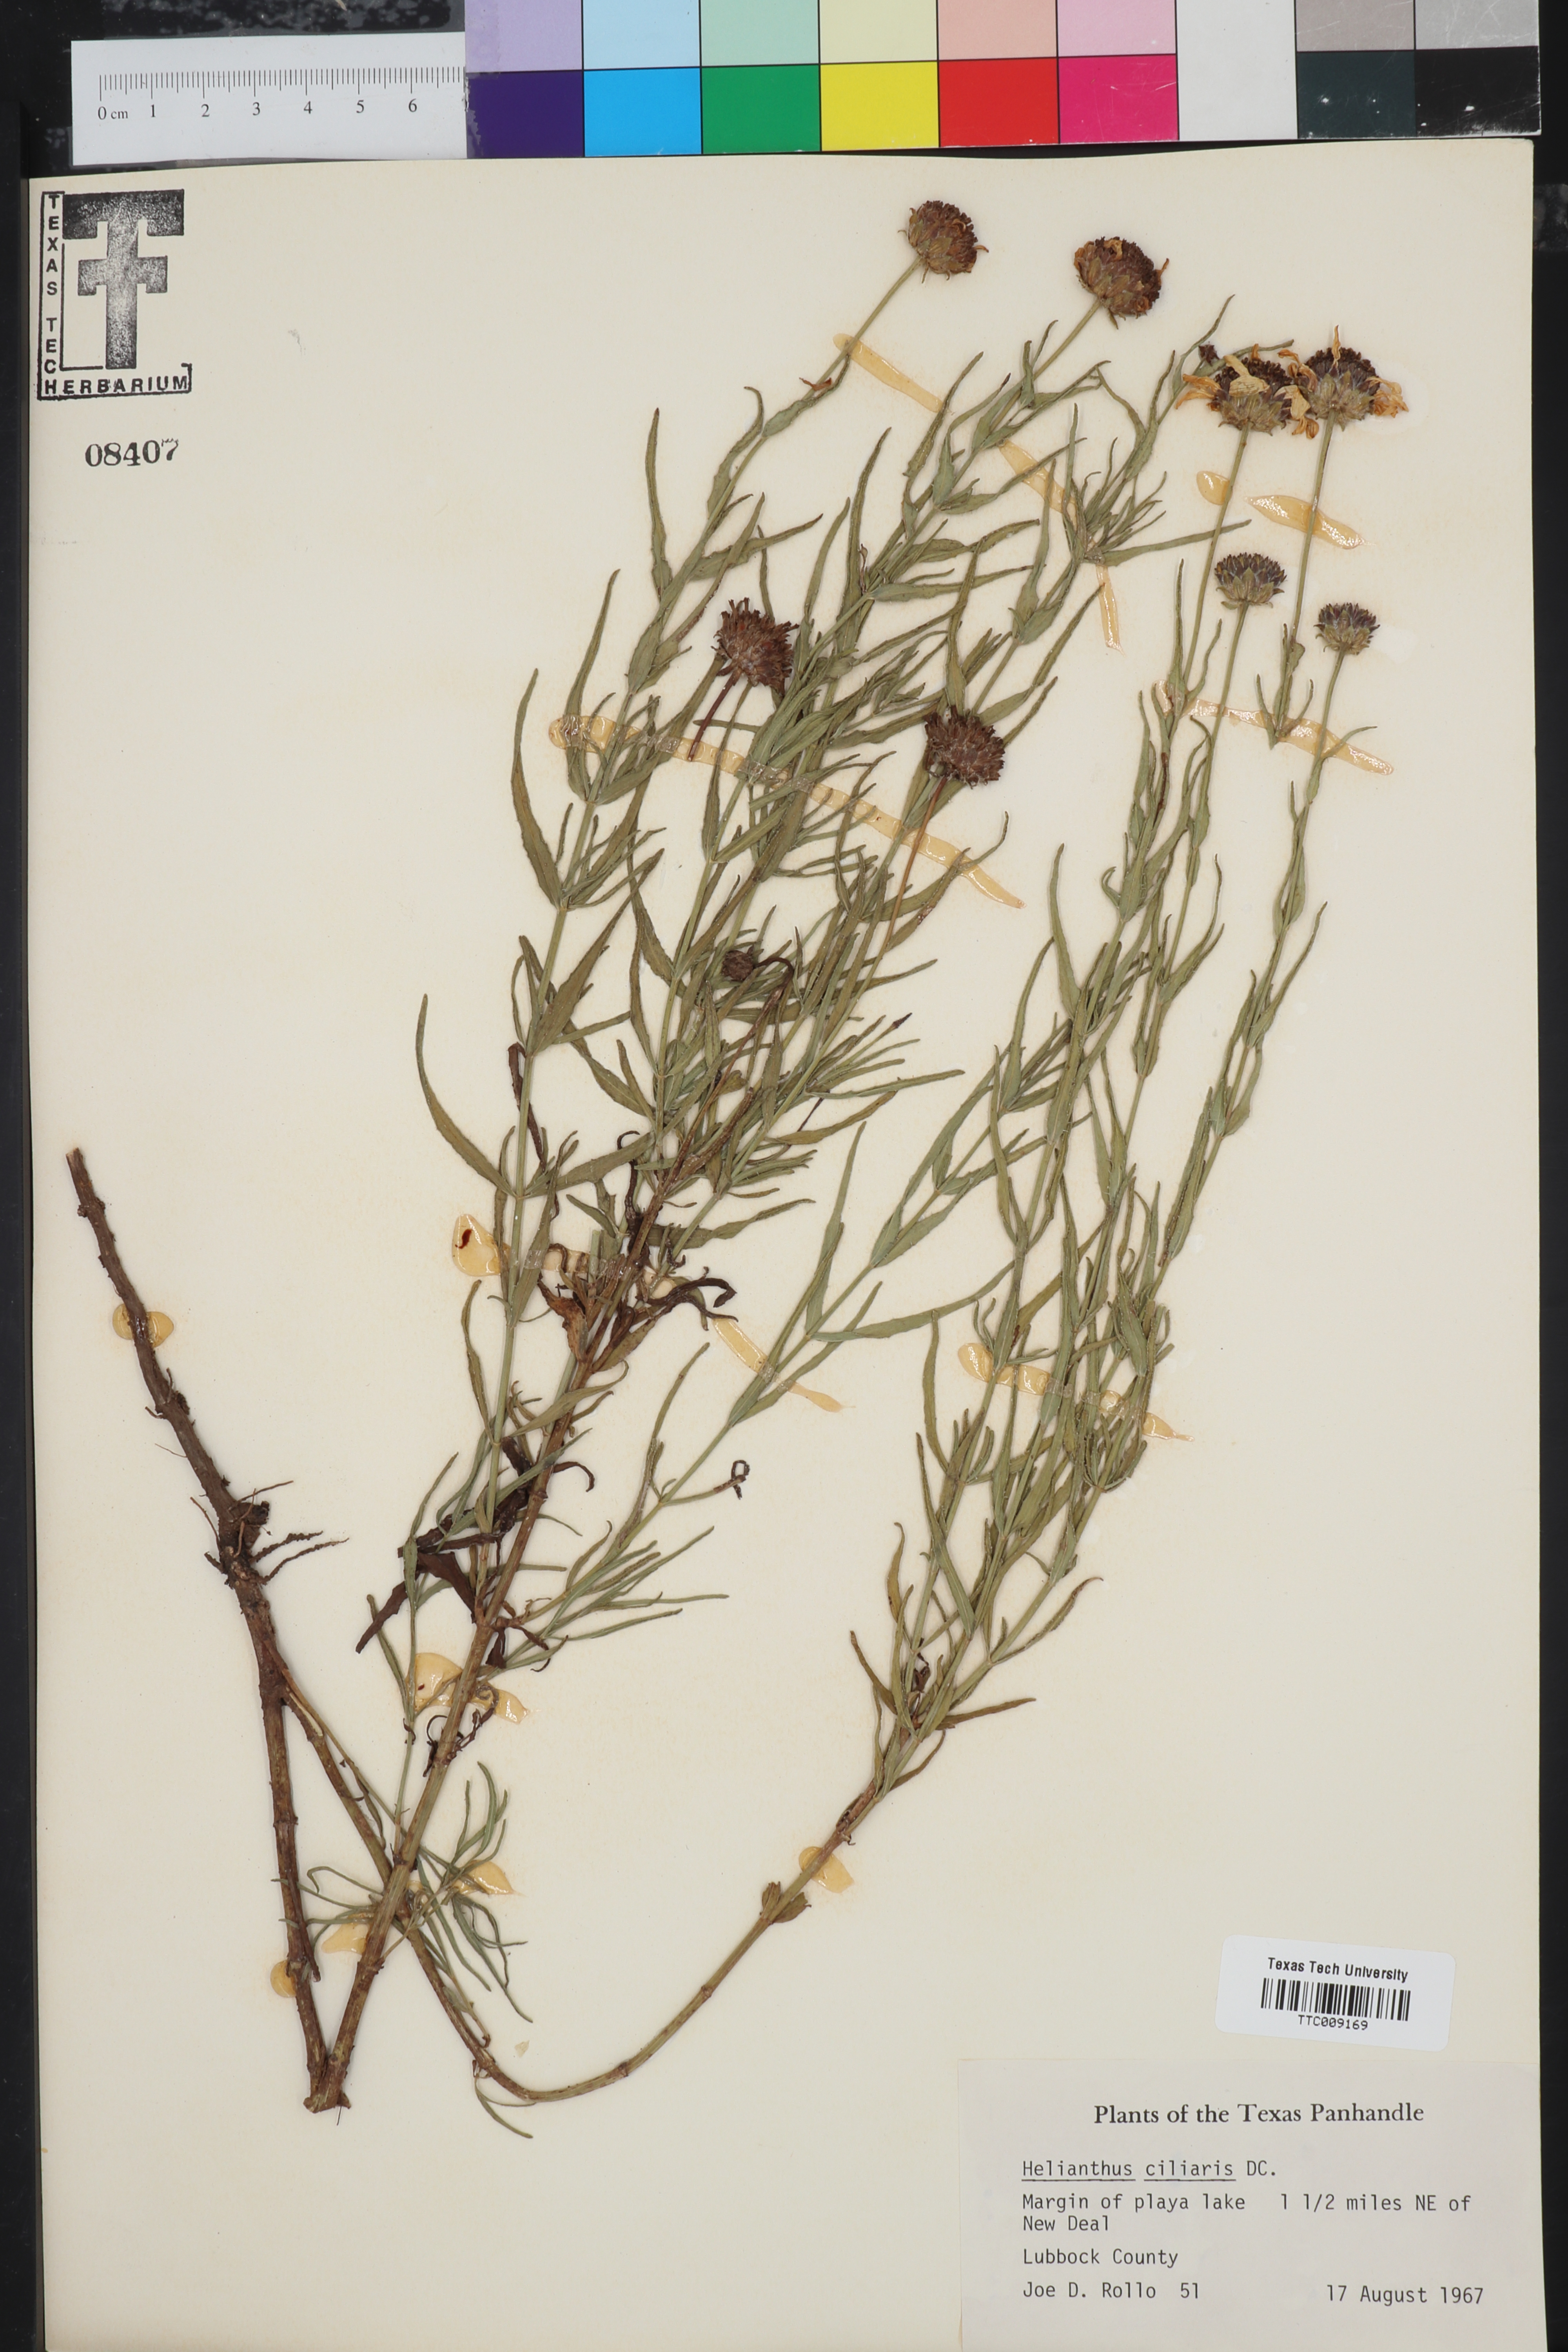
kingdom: Plantae
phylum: Tracheophyta
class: Magnoliopsida
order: Asterales
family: Asteraceae
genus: Helianthus
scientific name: Helianthus ciliaris
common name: Texas blueweed
